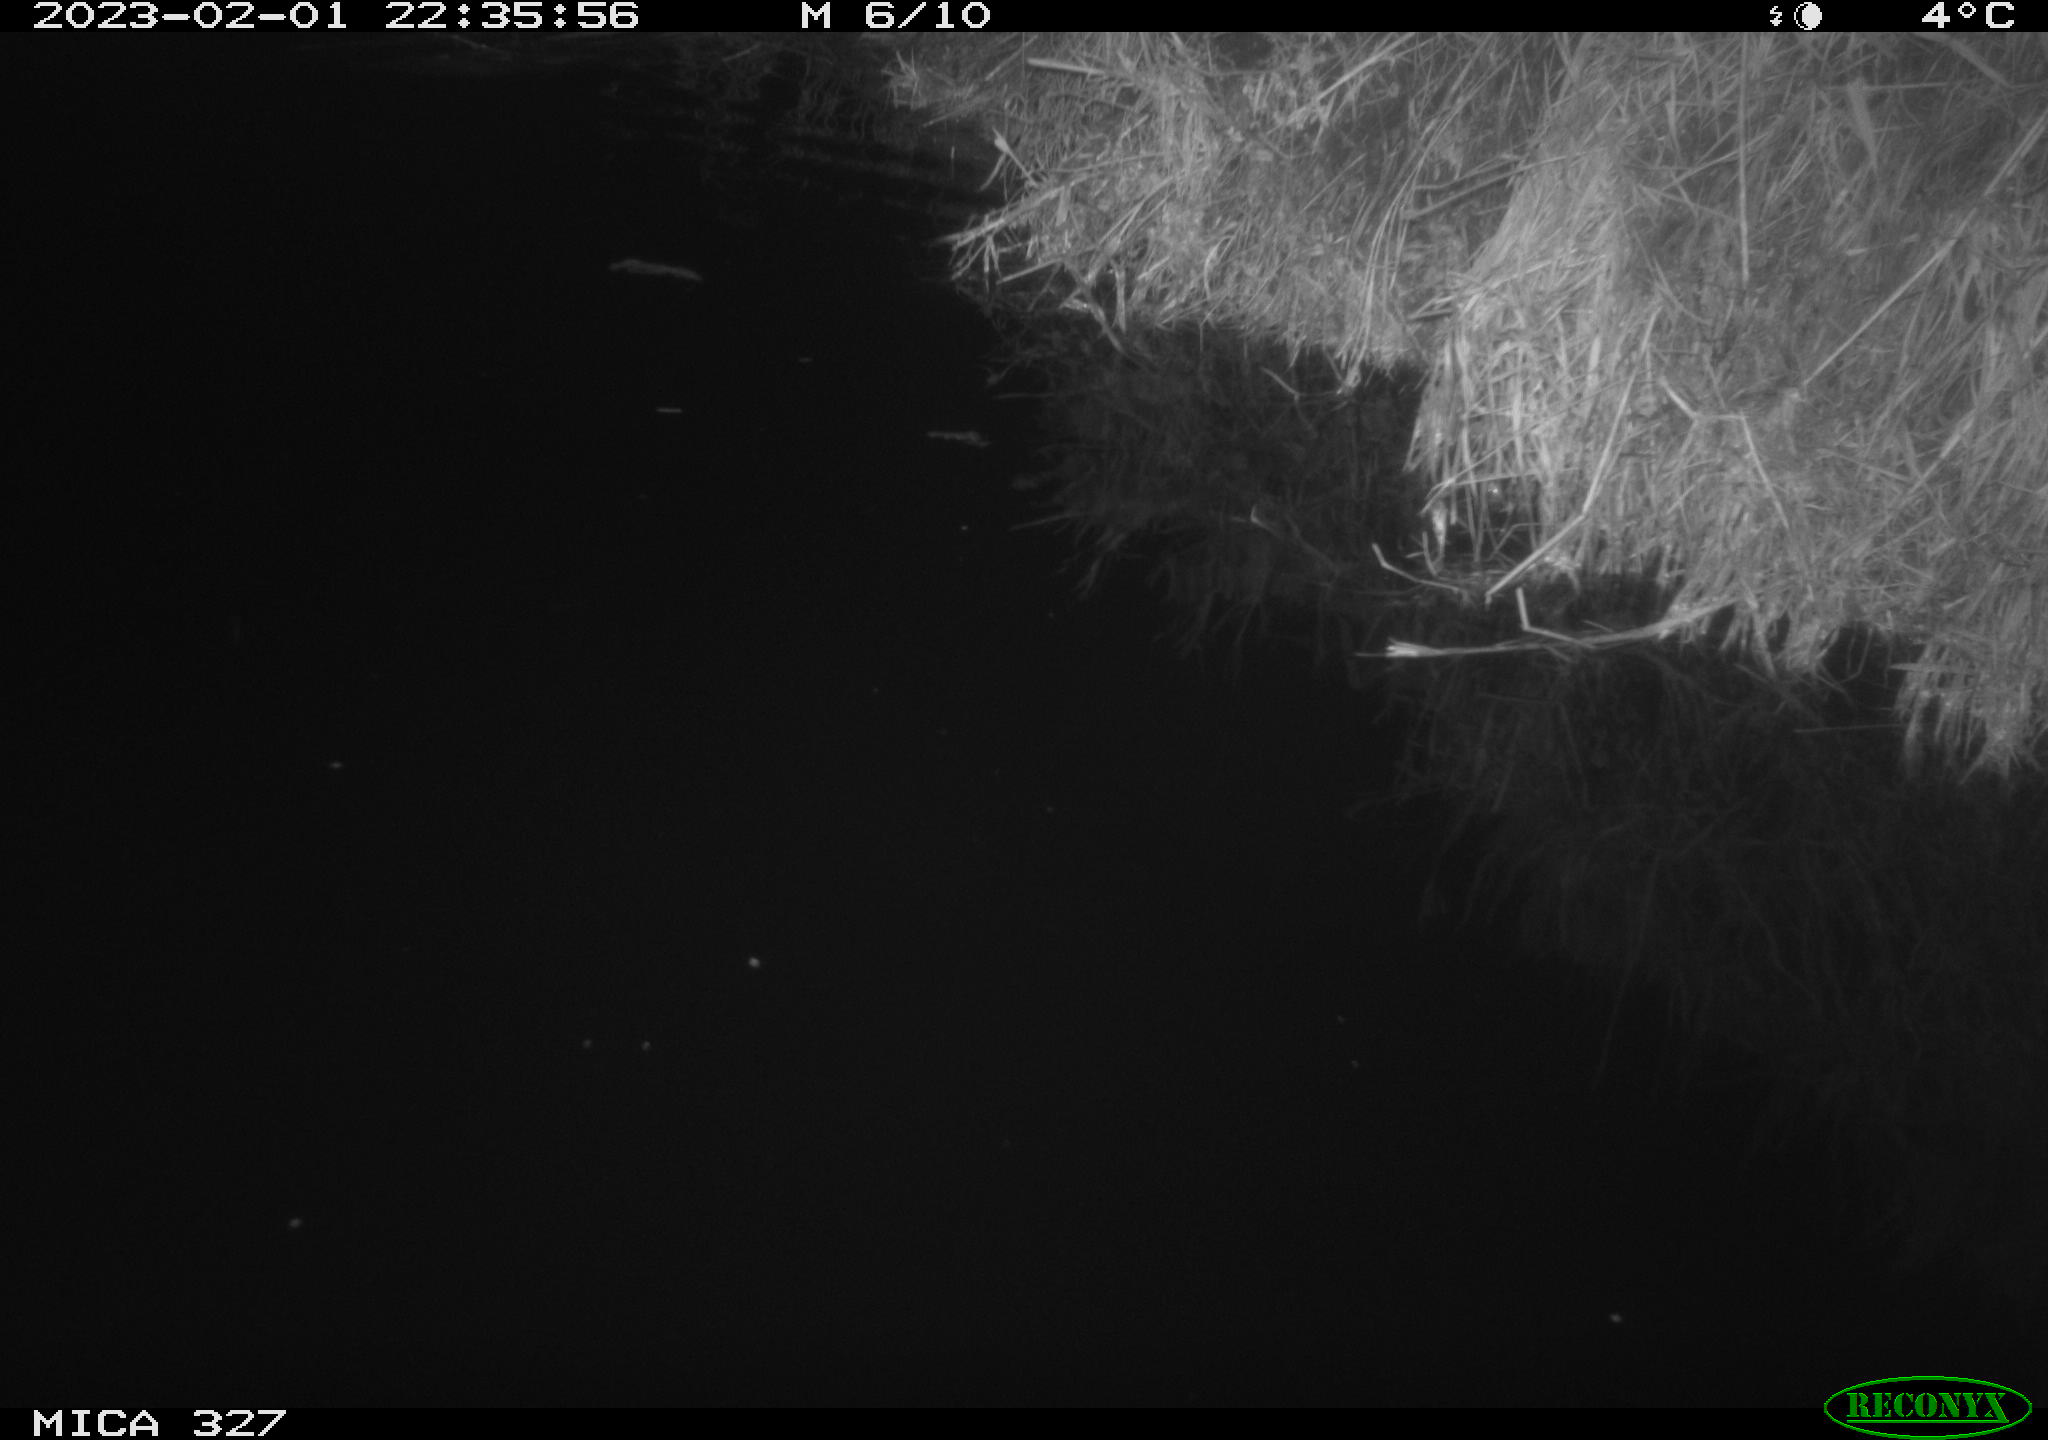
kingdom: Animalia
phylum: Chordata
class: Mammalia
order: Rodentia
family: Cricetidae
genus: Ondatra
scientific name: Ondatra zibethicus
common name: Muskrat
